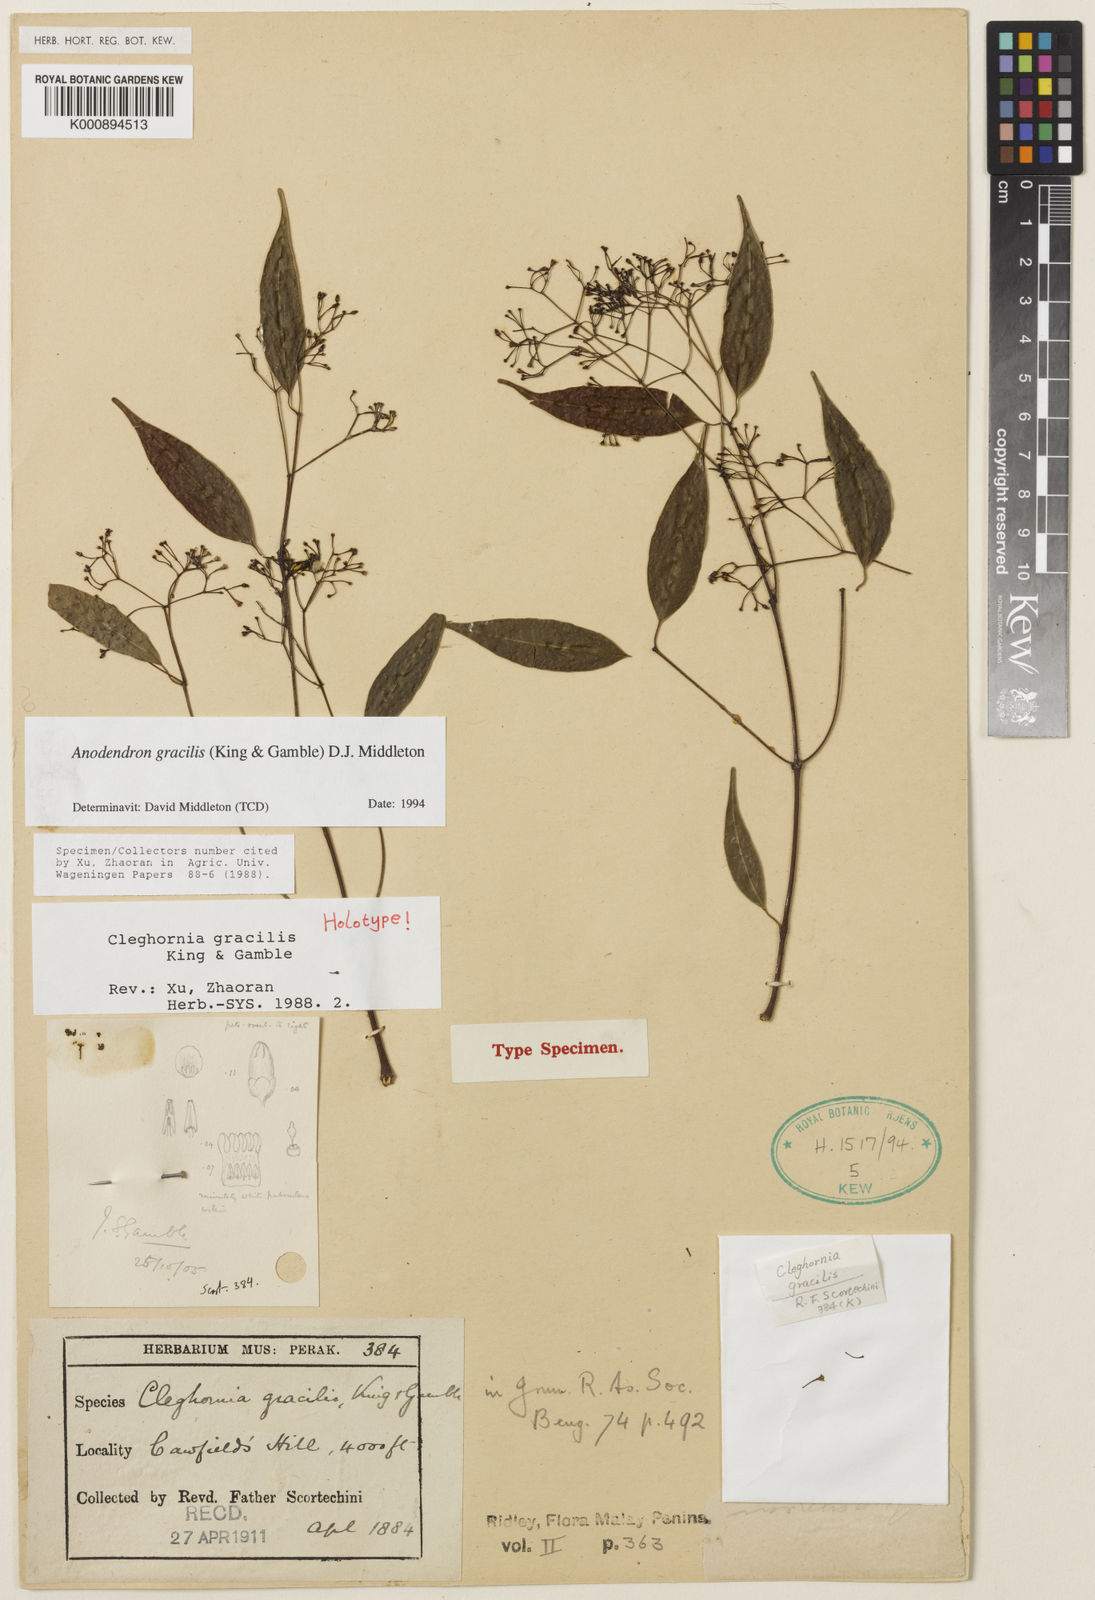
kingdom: Plantae
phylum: Tracheophyta
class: Magnoliopsida
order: Gentianales
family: Apocynaceae
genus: Anodendron
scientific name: Anodendron gracile
